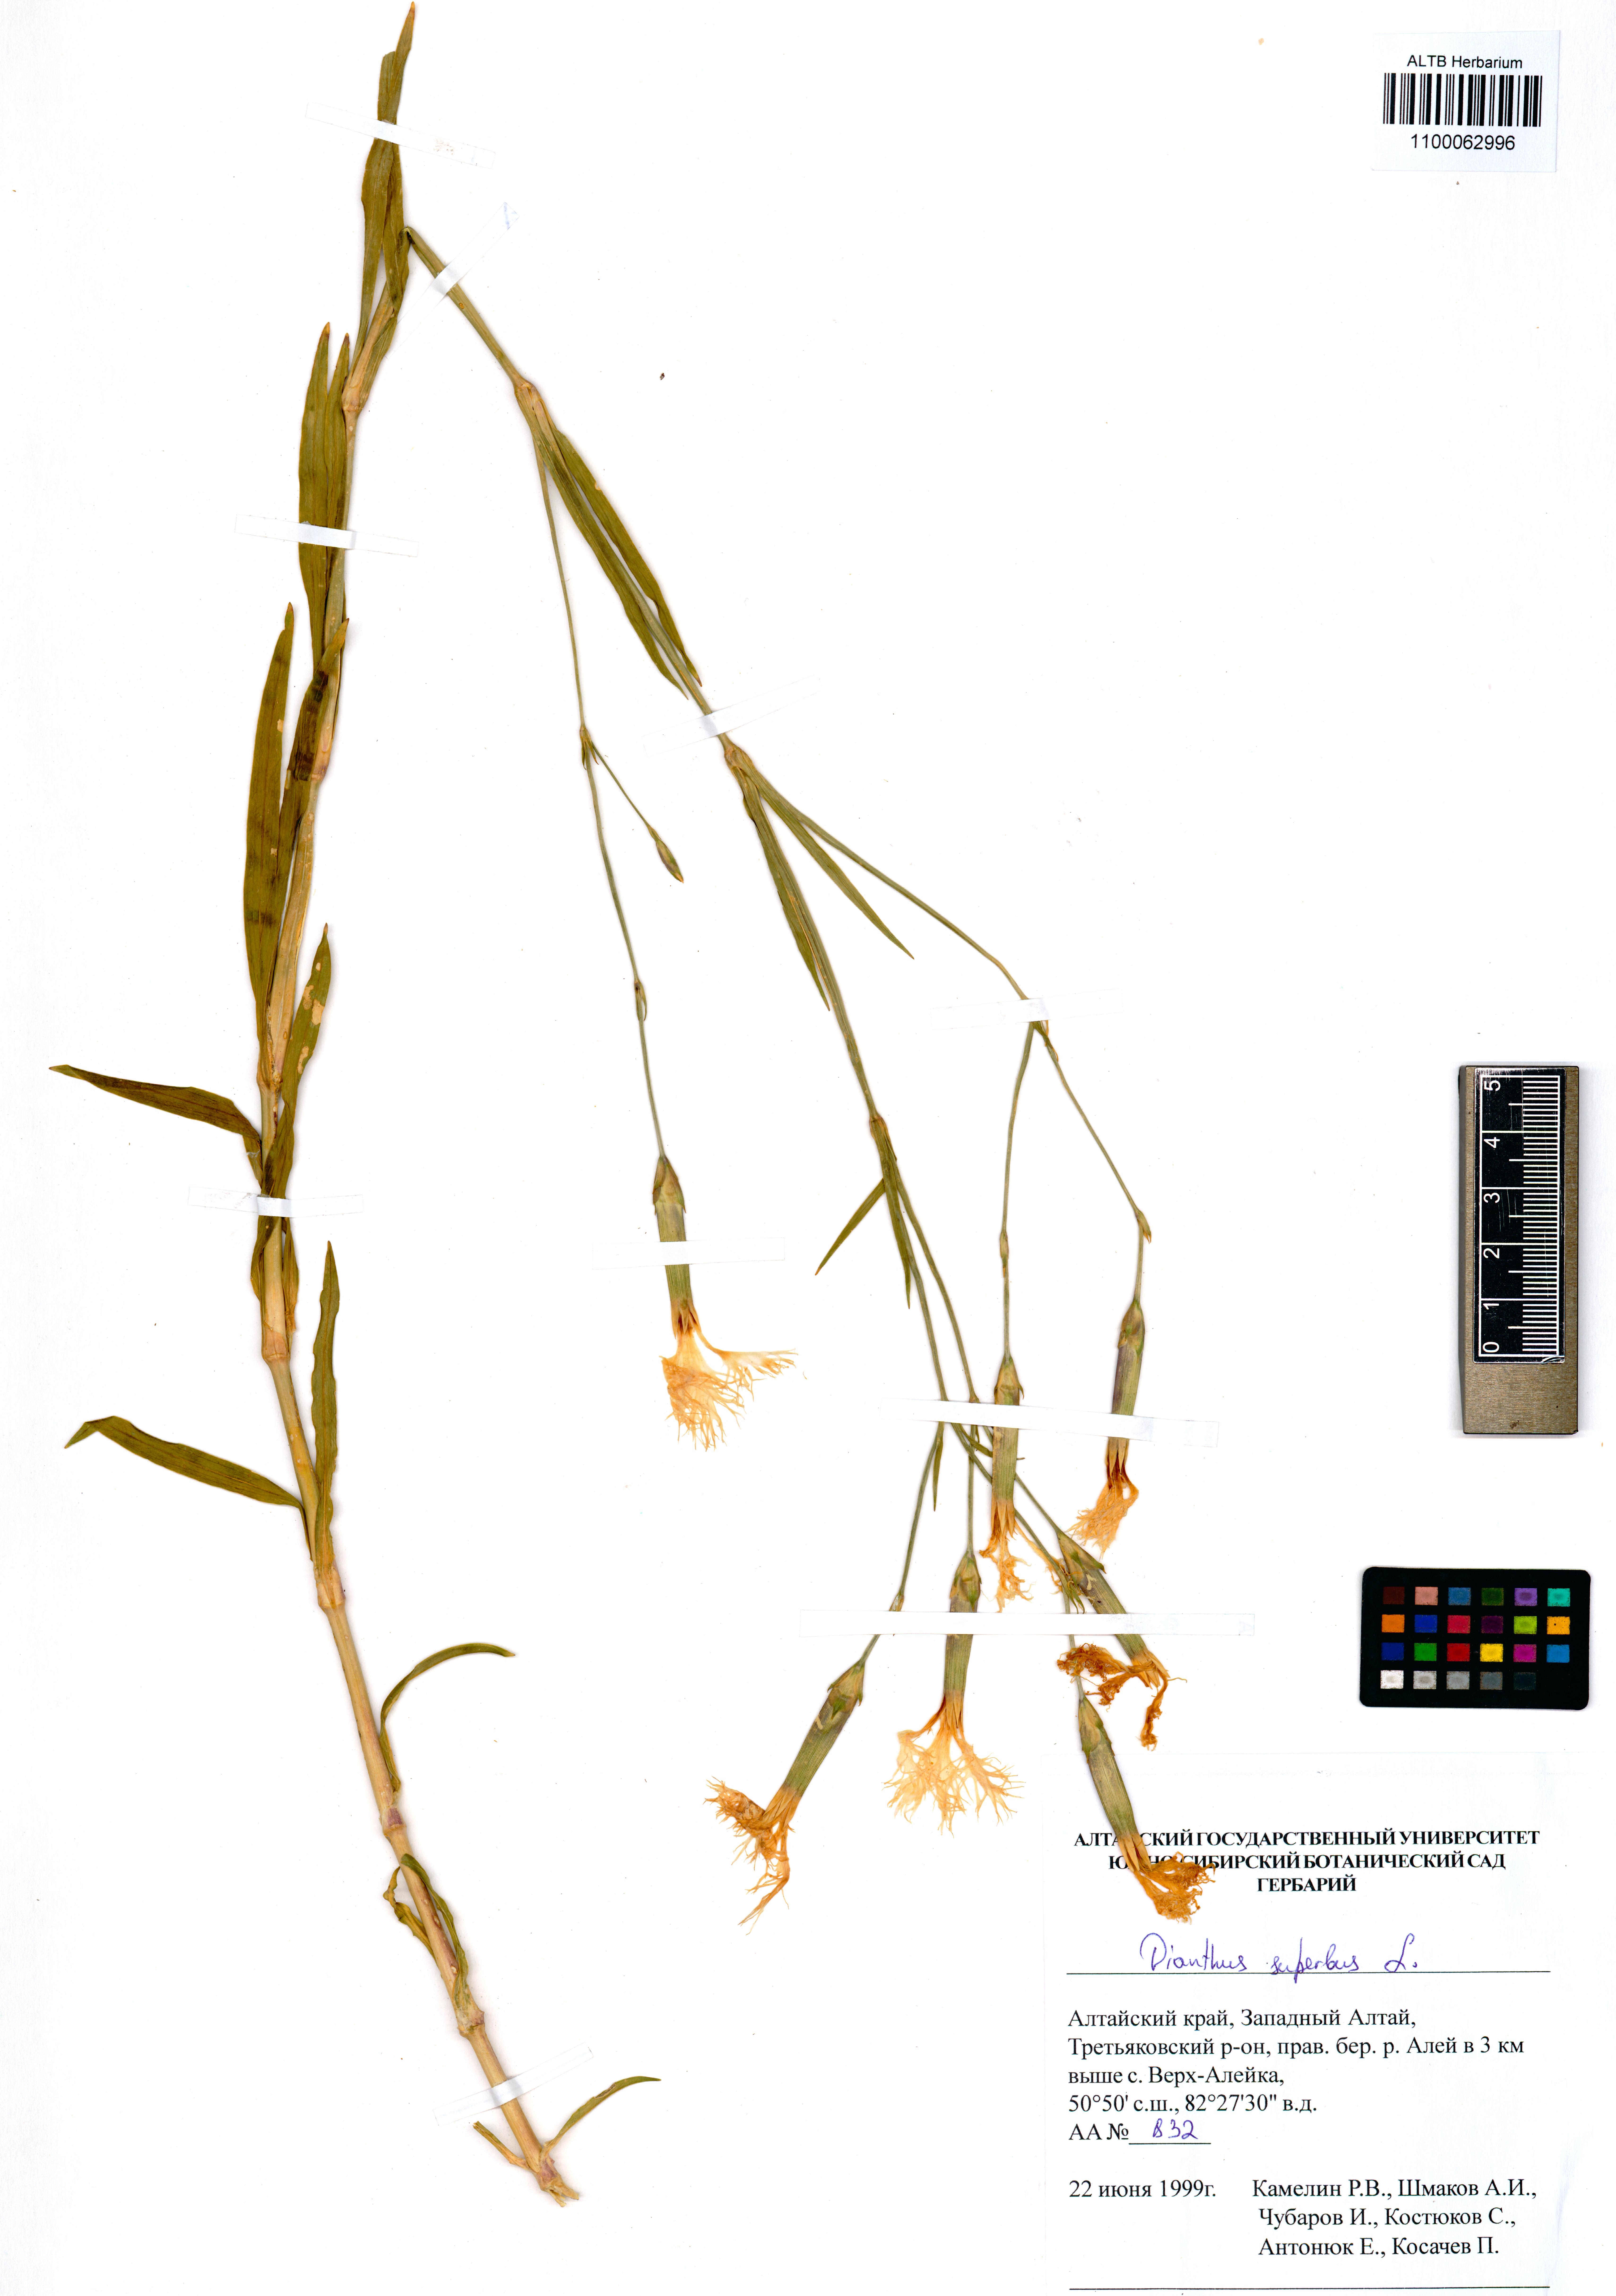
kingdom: Plantae
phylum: Tracheophyta
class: Magnoliopsida
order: Caryophyllales
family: Caryophyllaceae
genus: Dianthus
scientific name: Dianthus superbus
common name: Fringed pink
